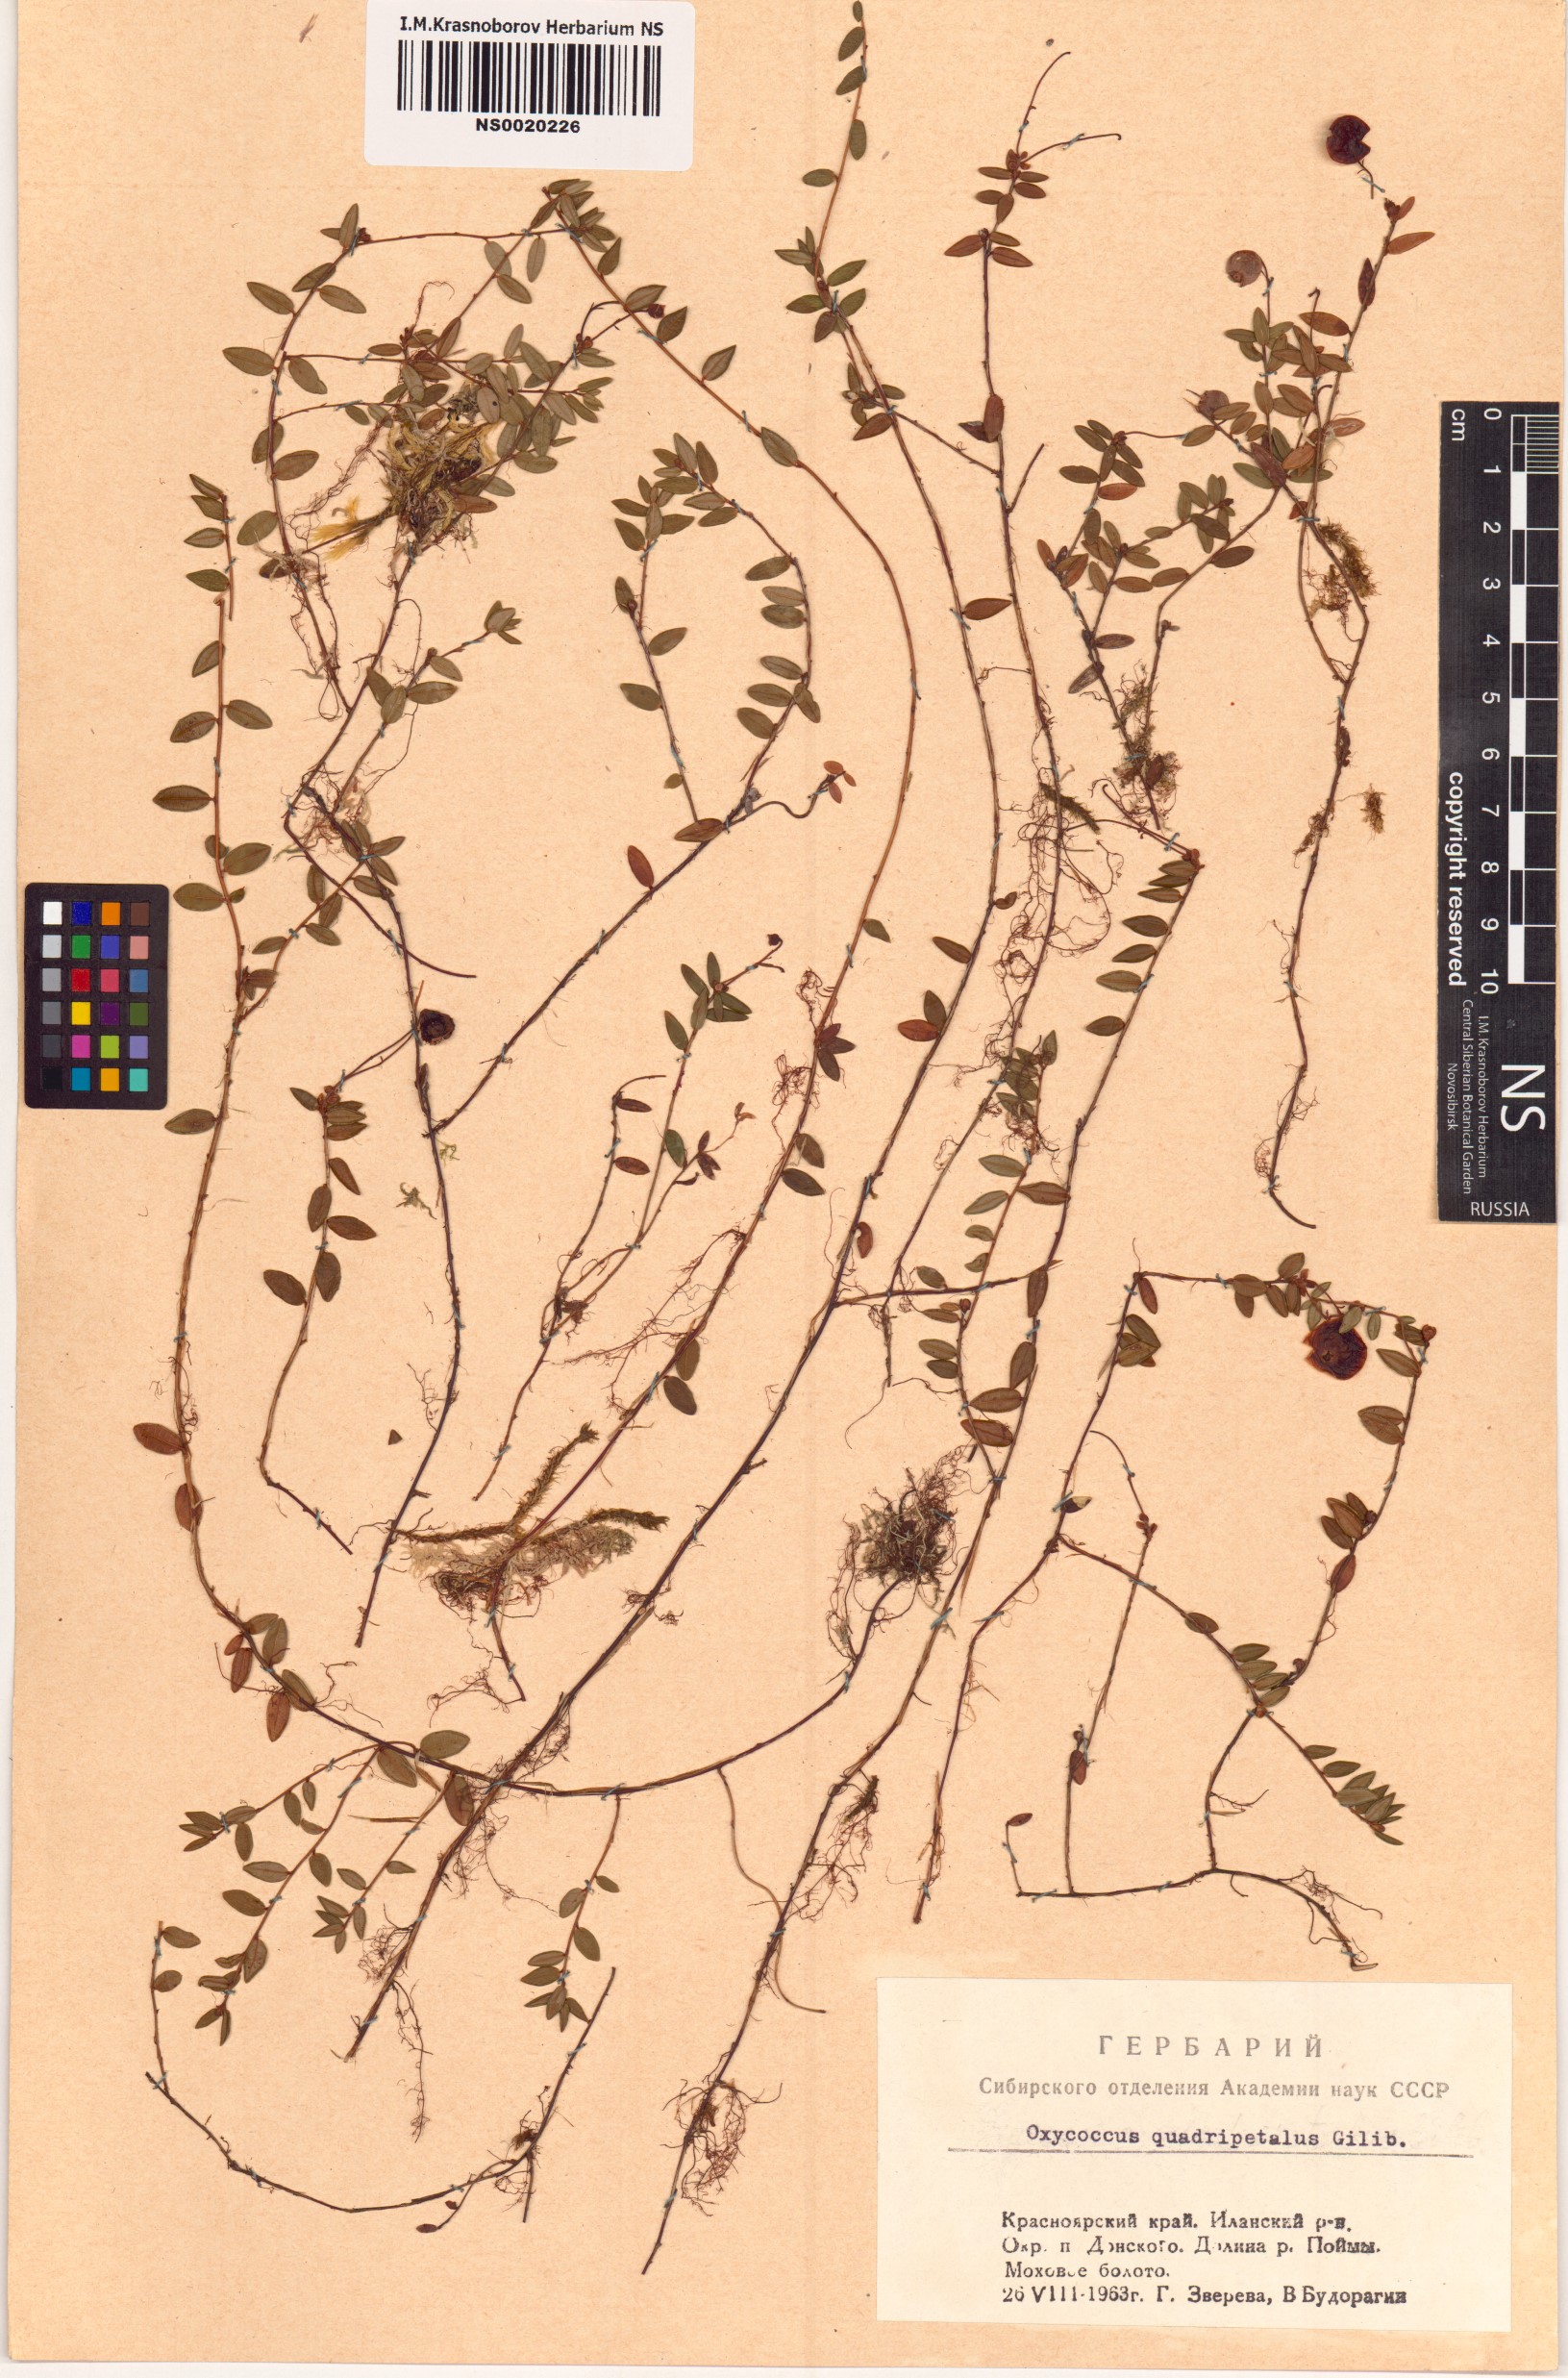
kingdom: Plantae
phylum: Tracheophyta
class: Magnoliopsida
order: Ericales
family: Ericaceae
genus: Vaccinium
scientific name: Vaccinium oxycoccos
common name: Cranberry
